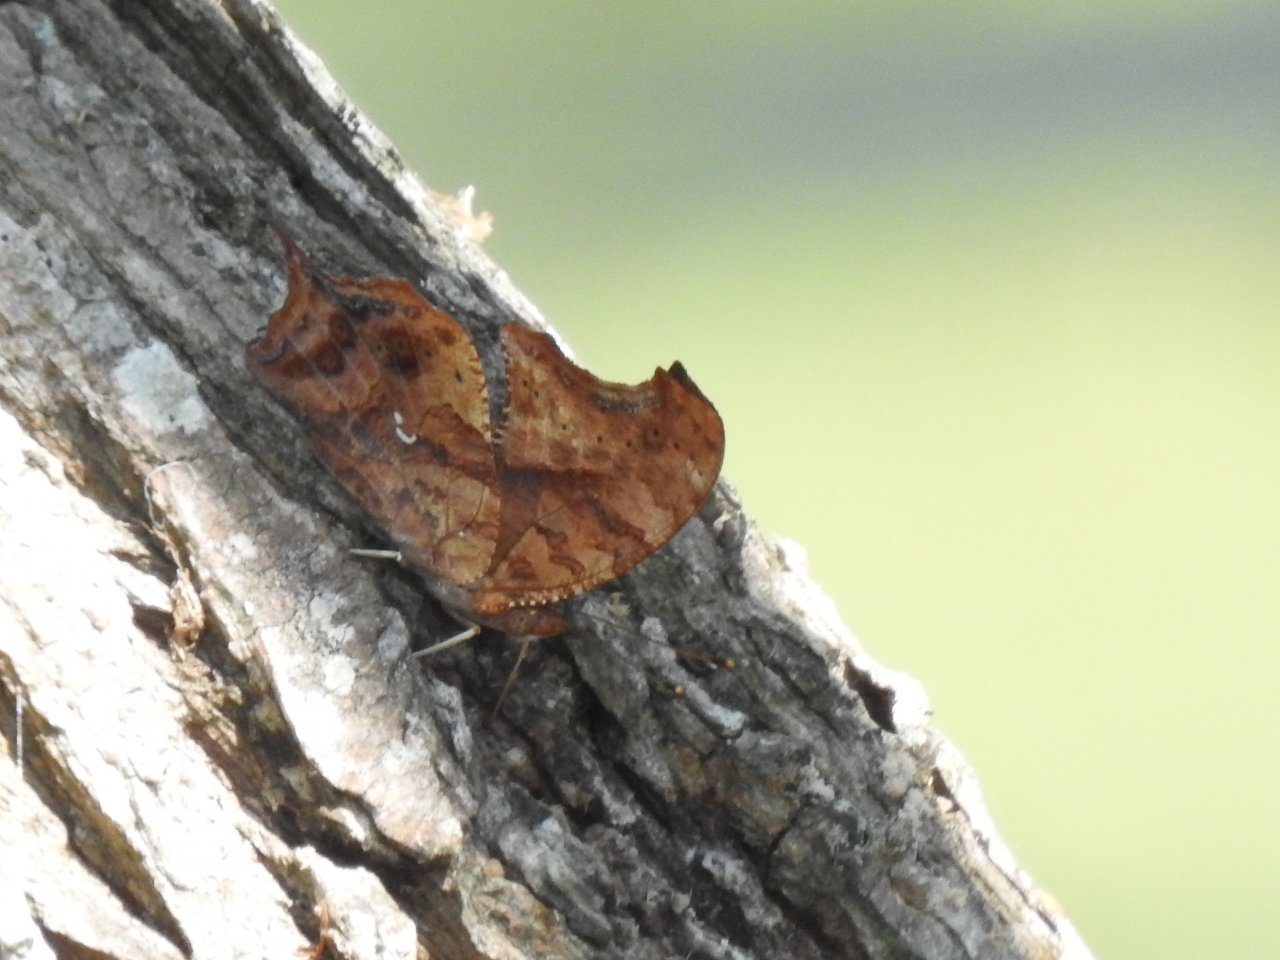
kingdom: Animalia
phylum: Arthropoda
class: Insecta
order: Lepidoptera
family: Nymphalidae
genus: Polygonia
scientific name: Polygonia interrogationis
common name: Question Mark
